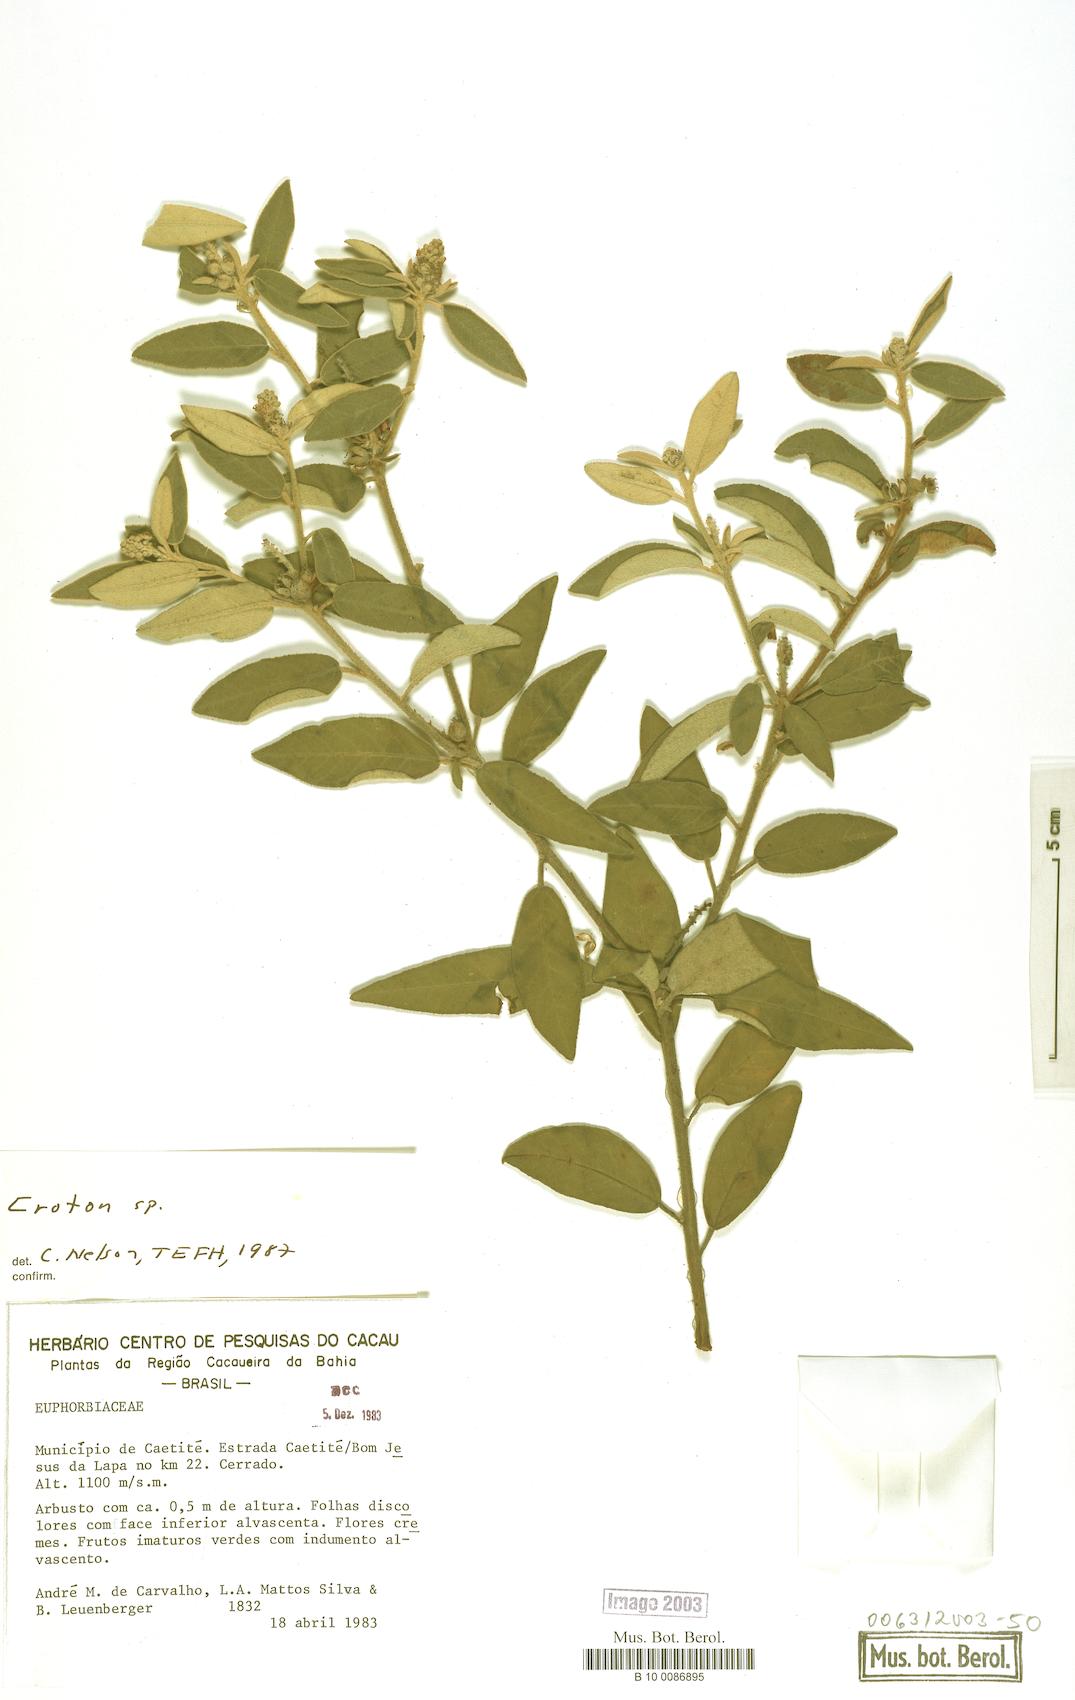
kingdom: Plantae
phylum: Tracheophyta
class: Magnoliopsida
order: Malpighiales
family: Euphorbiaceae
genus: Croton
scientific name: Croton
